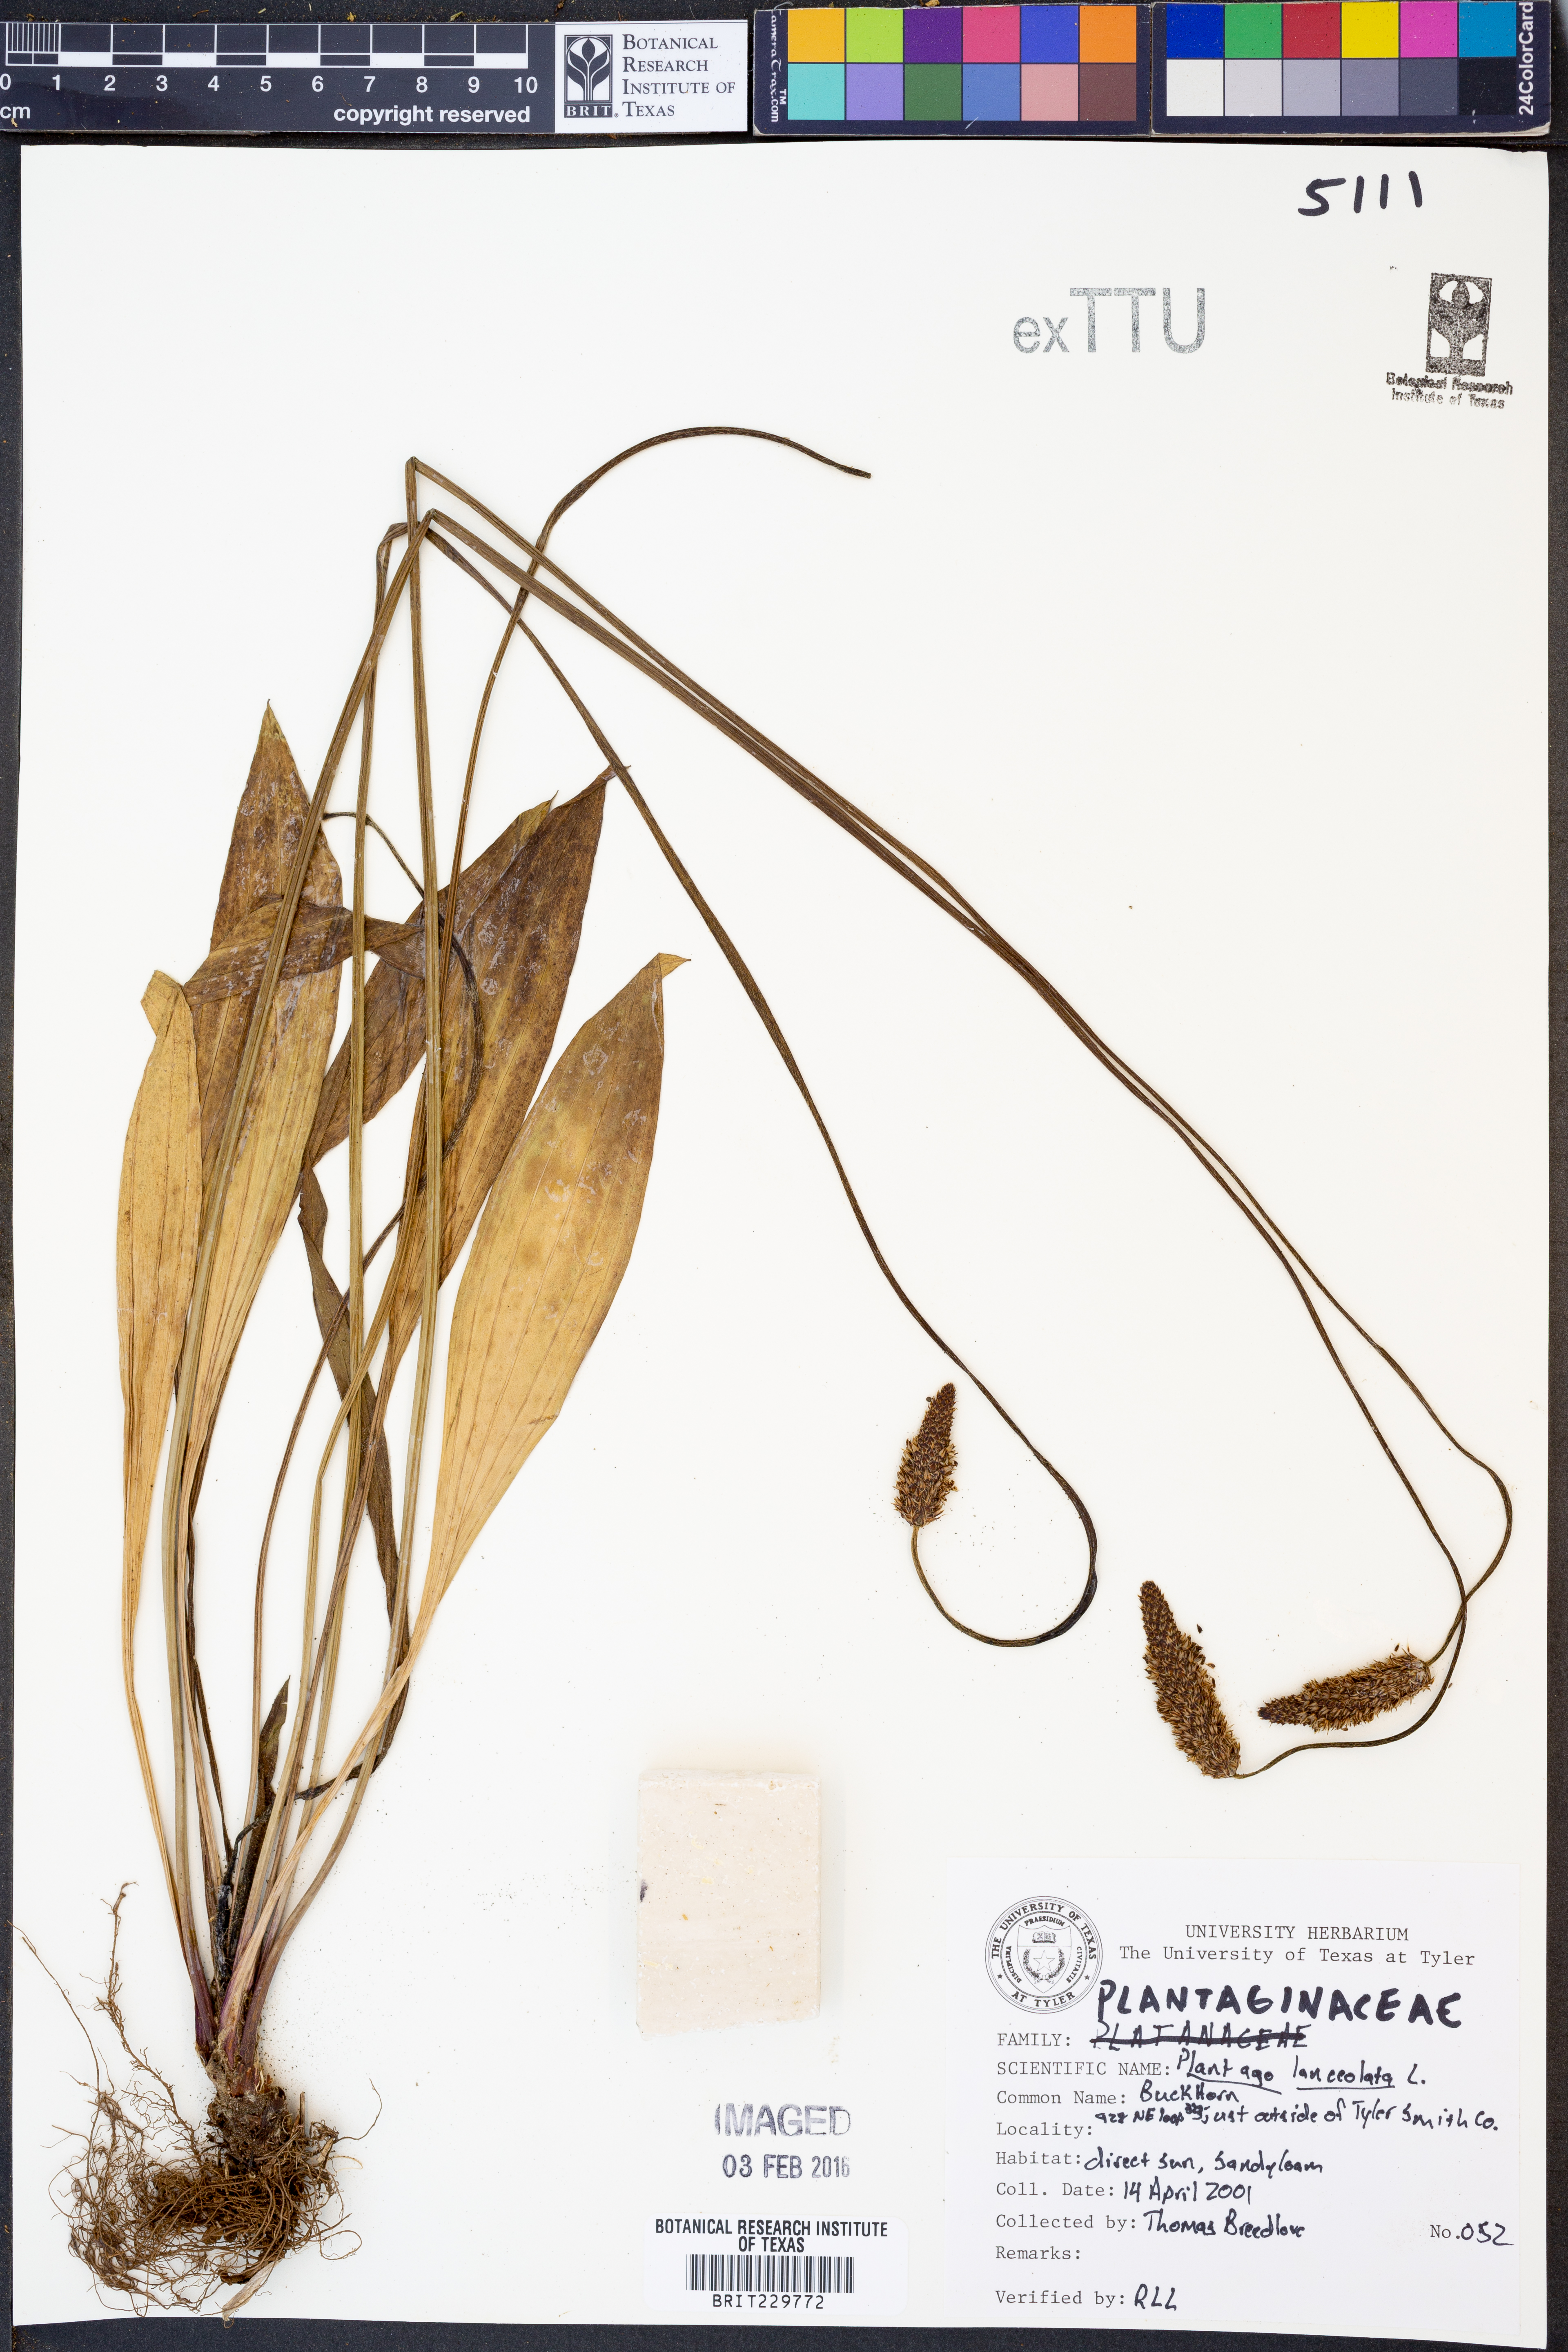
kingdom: Plantae
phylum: Tracheophyta
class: Magnoliopsida
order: Lamiales
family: Plantaginaceae
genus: Plantago
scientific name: Plantago lanceolata
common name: Ribwort plantain
